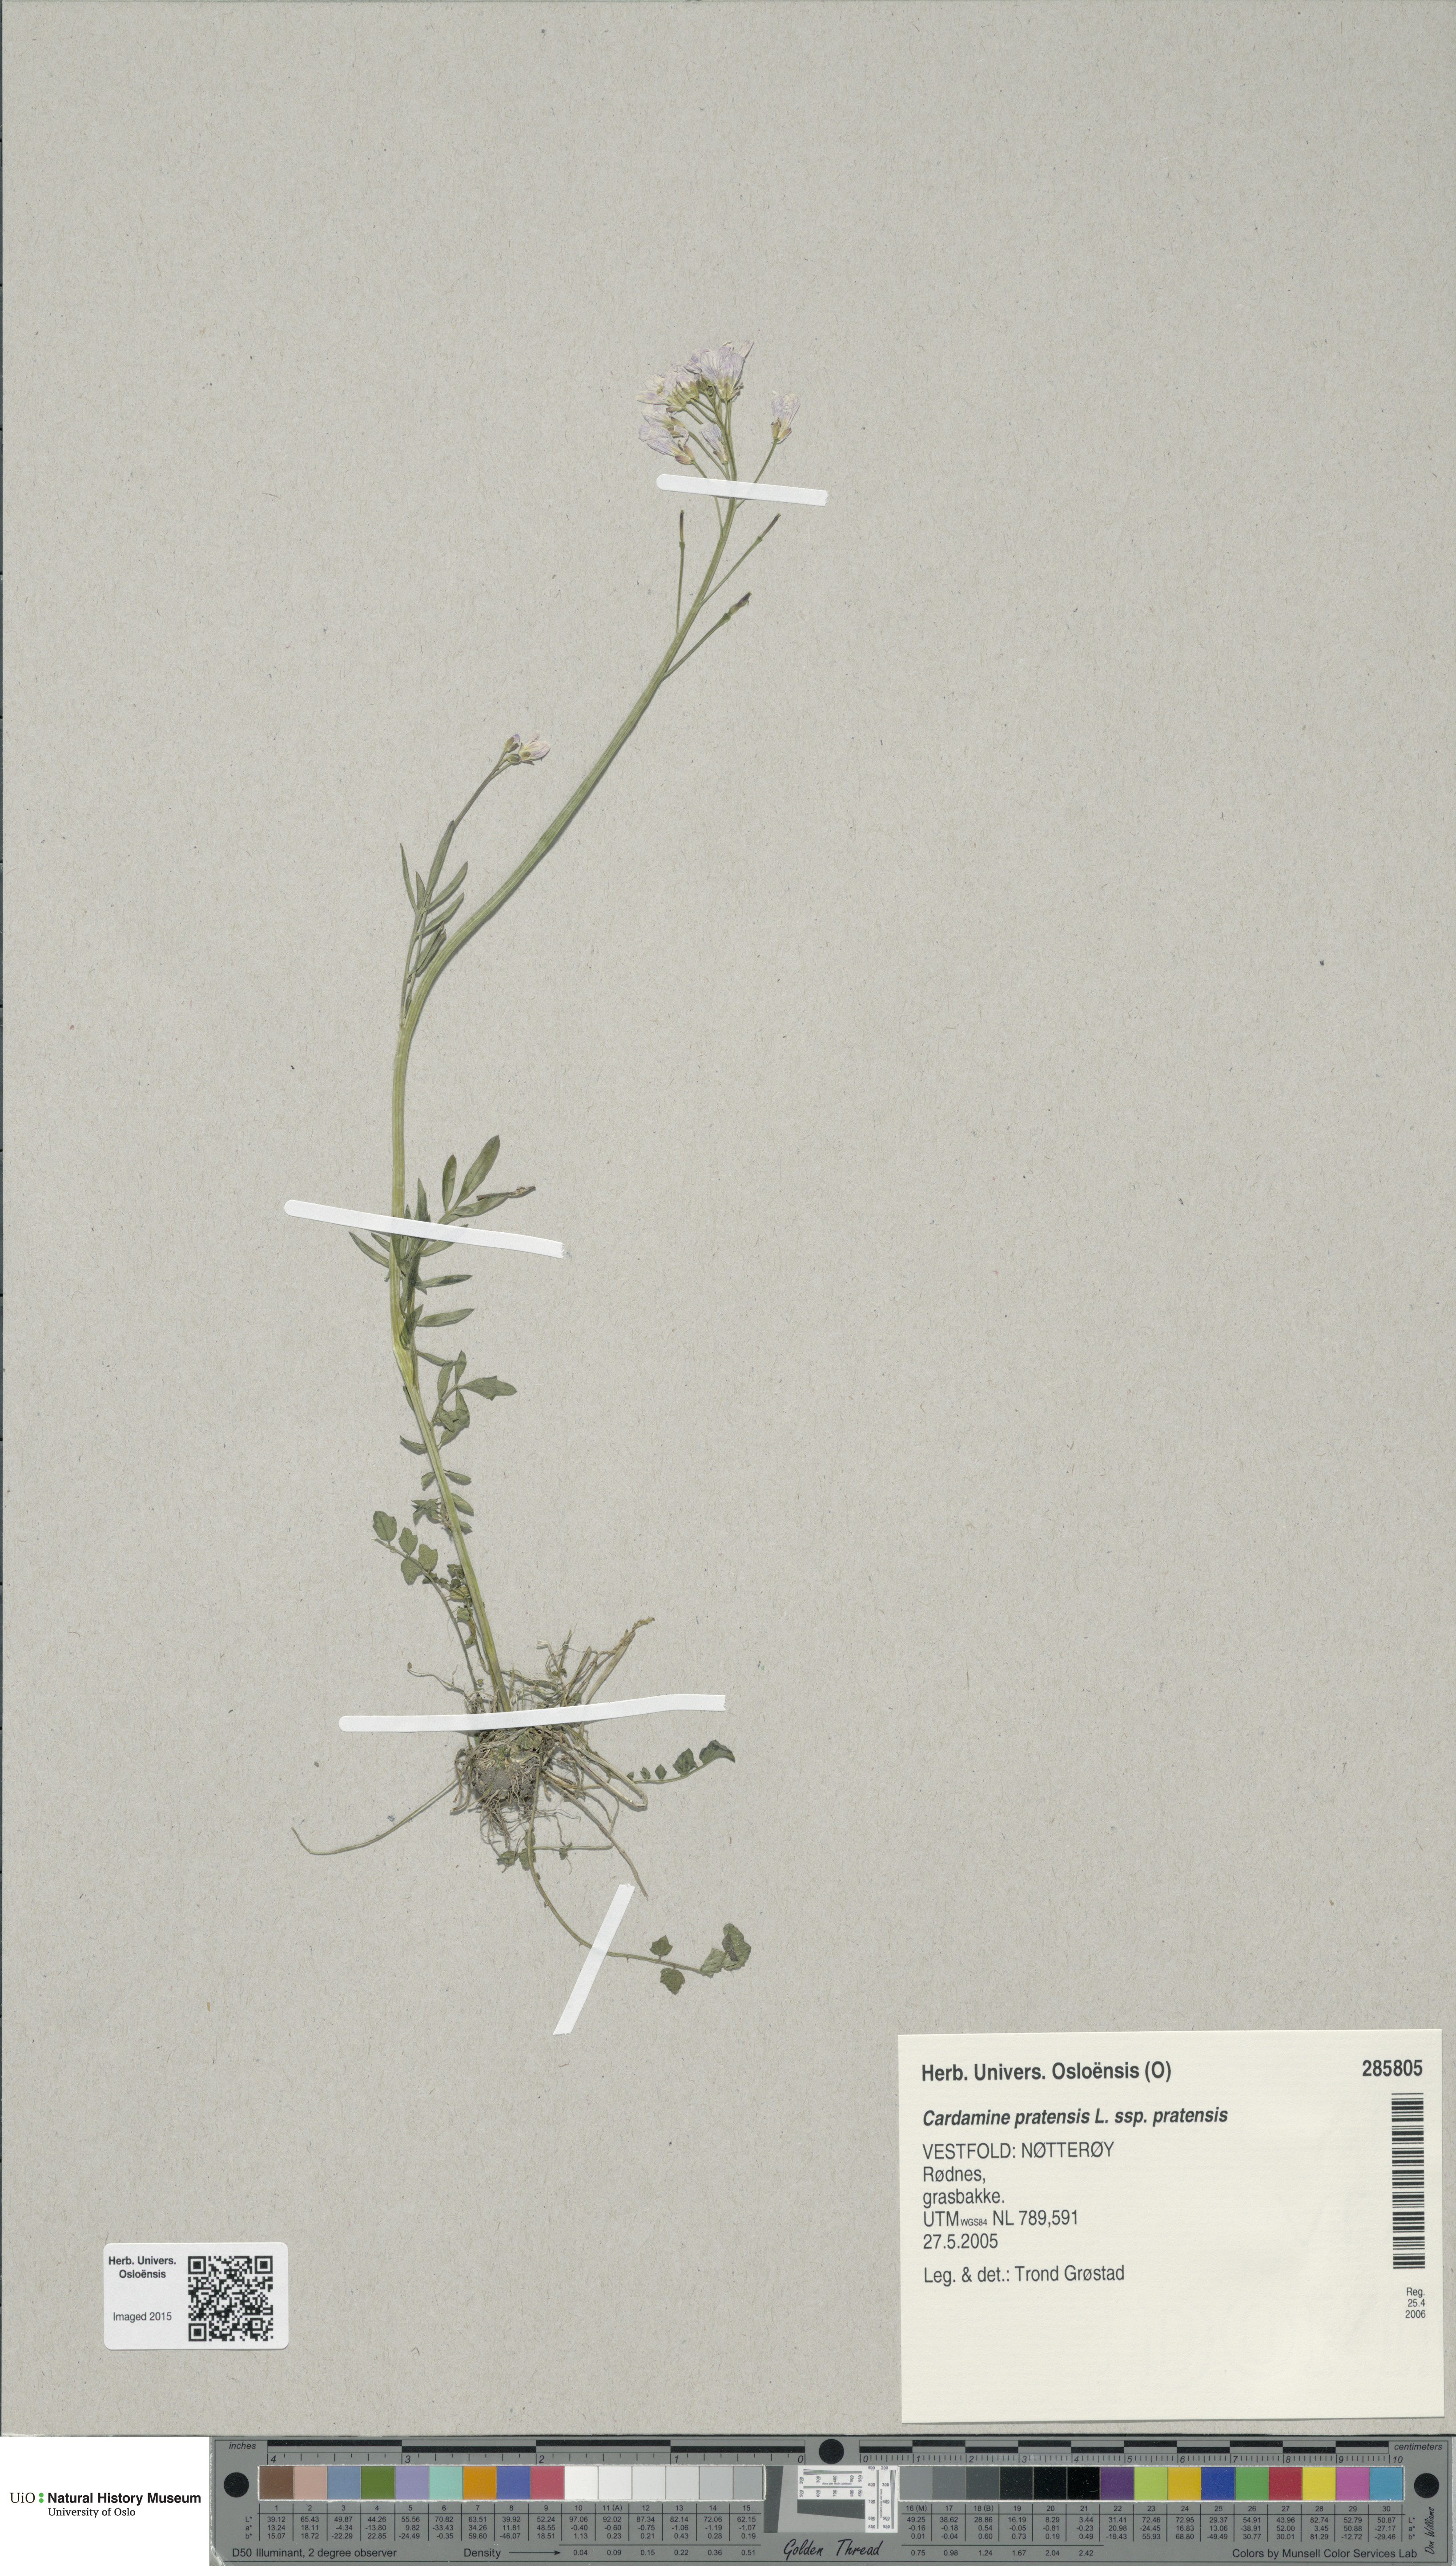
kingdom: Plantae
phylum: Tracheophyta
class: Magnoliopsida
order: Brassicales
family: Brassicaceae
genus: Cardamine
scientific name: Cardamine pratensis
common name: Cuckoo flower
